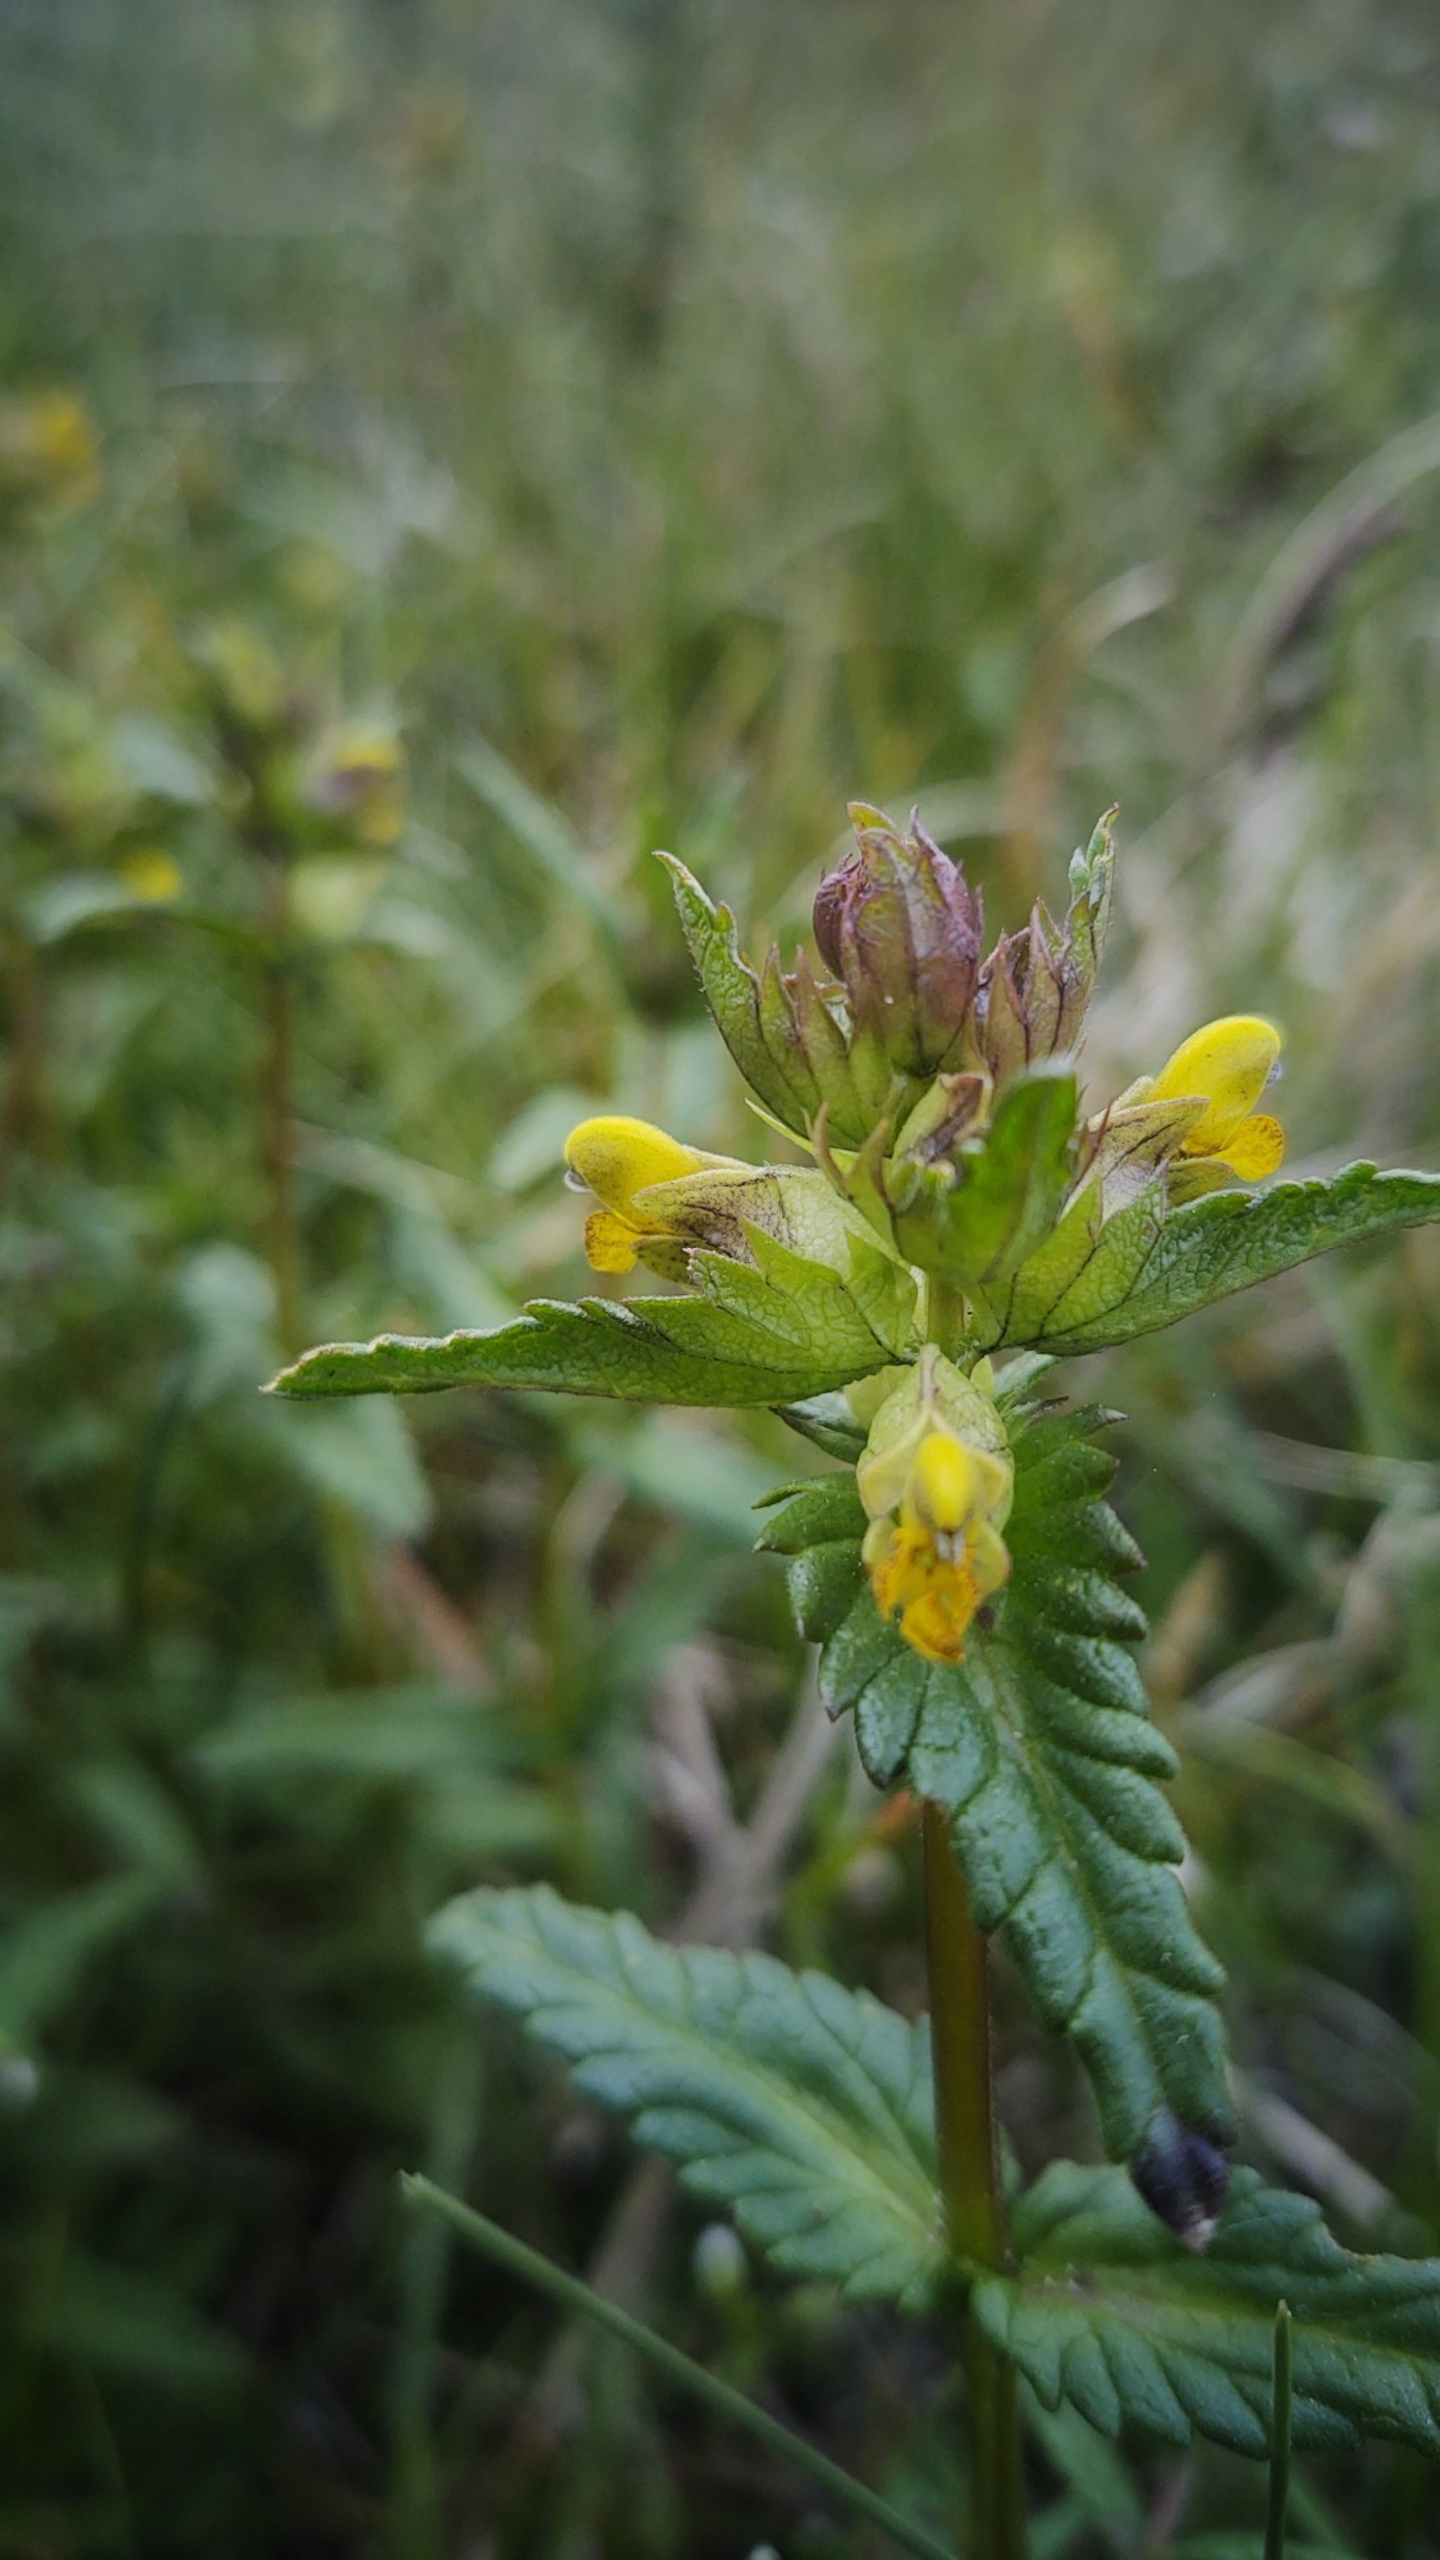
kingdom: Plantae
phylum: Tracheophyta
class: Magnoliopsida
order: Lamiales
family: Orobanchaceae
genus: Rhinanthus
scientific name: Rhinanthus minor
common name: Liden skjaller
